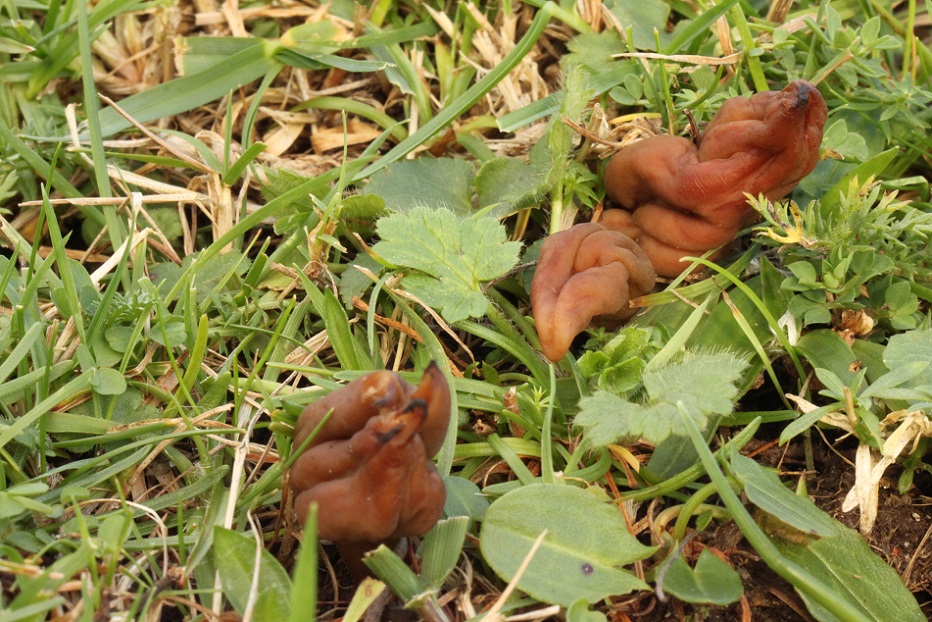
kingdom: Fungi
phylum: Ascomycota
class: Leotiomycetes
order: Leotiales
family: Leotiaceae
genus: Microglossum
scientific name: Microglossum olivaceum
